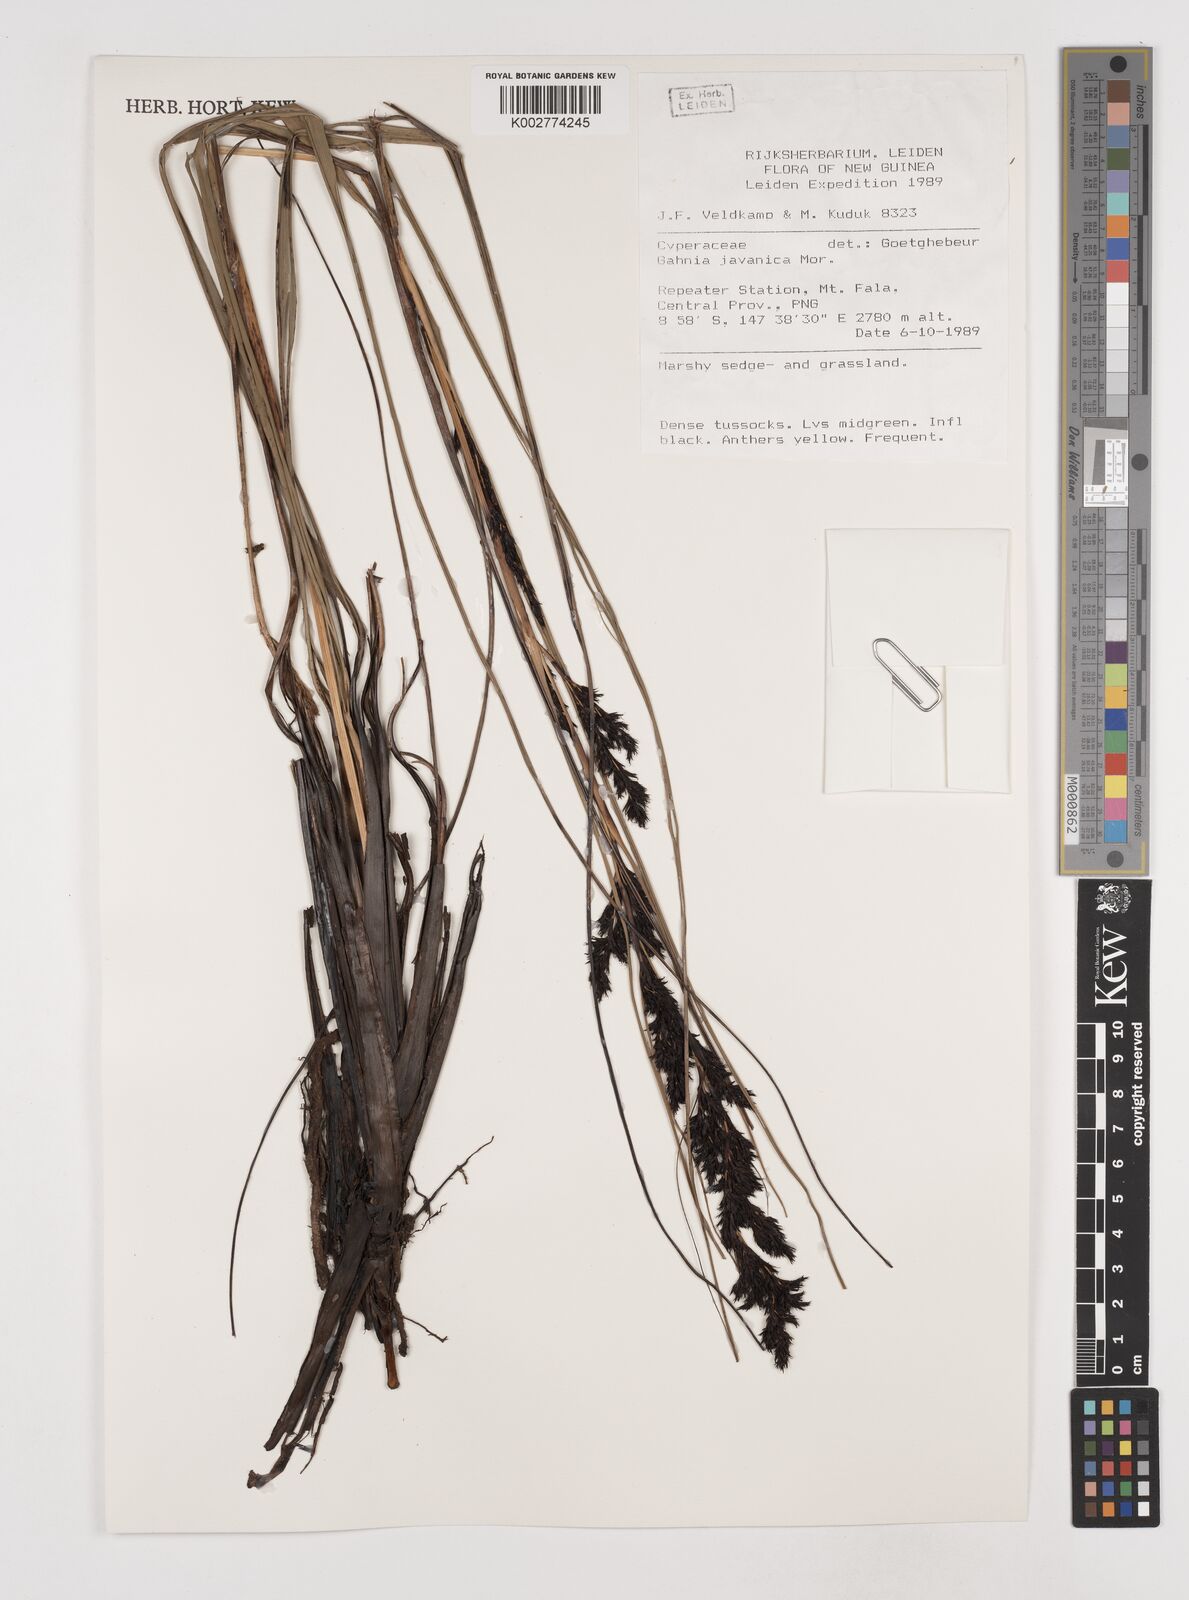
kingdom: Plantae
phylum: Tracheophyta
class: Liliopsida
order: Poales
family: Cyperaceae
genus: Gahnia
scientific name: Gahnia javanica
